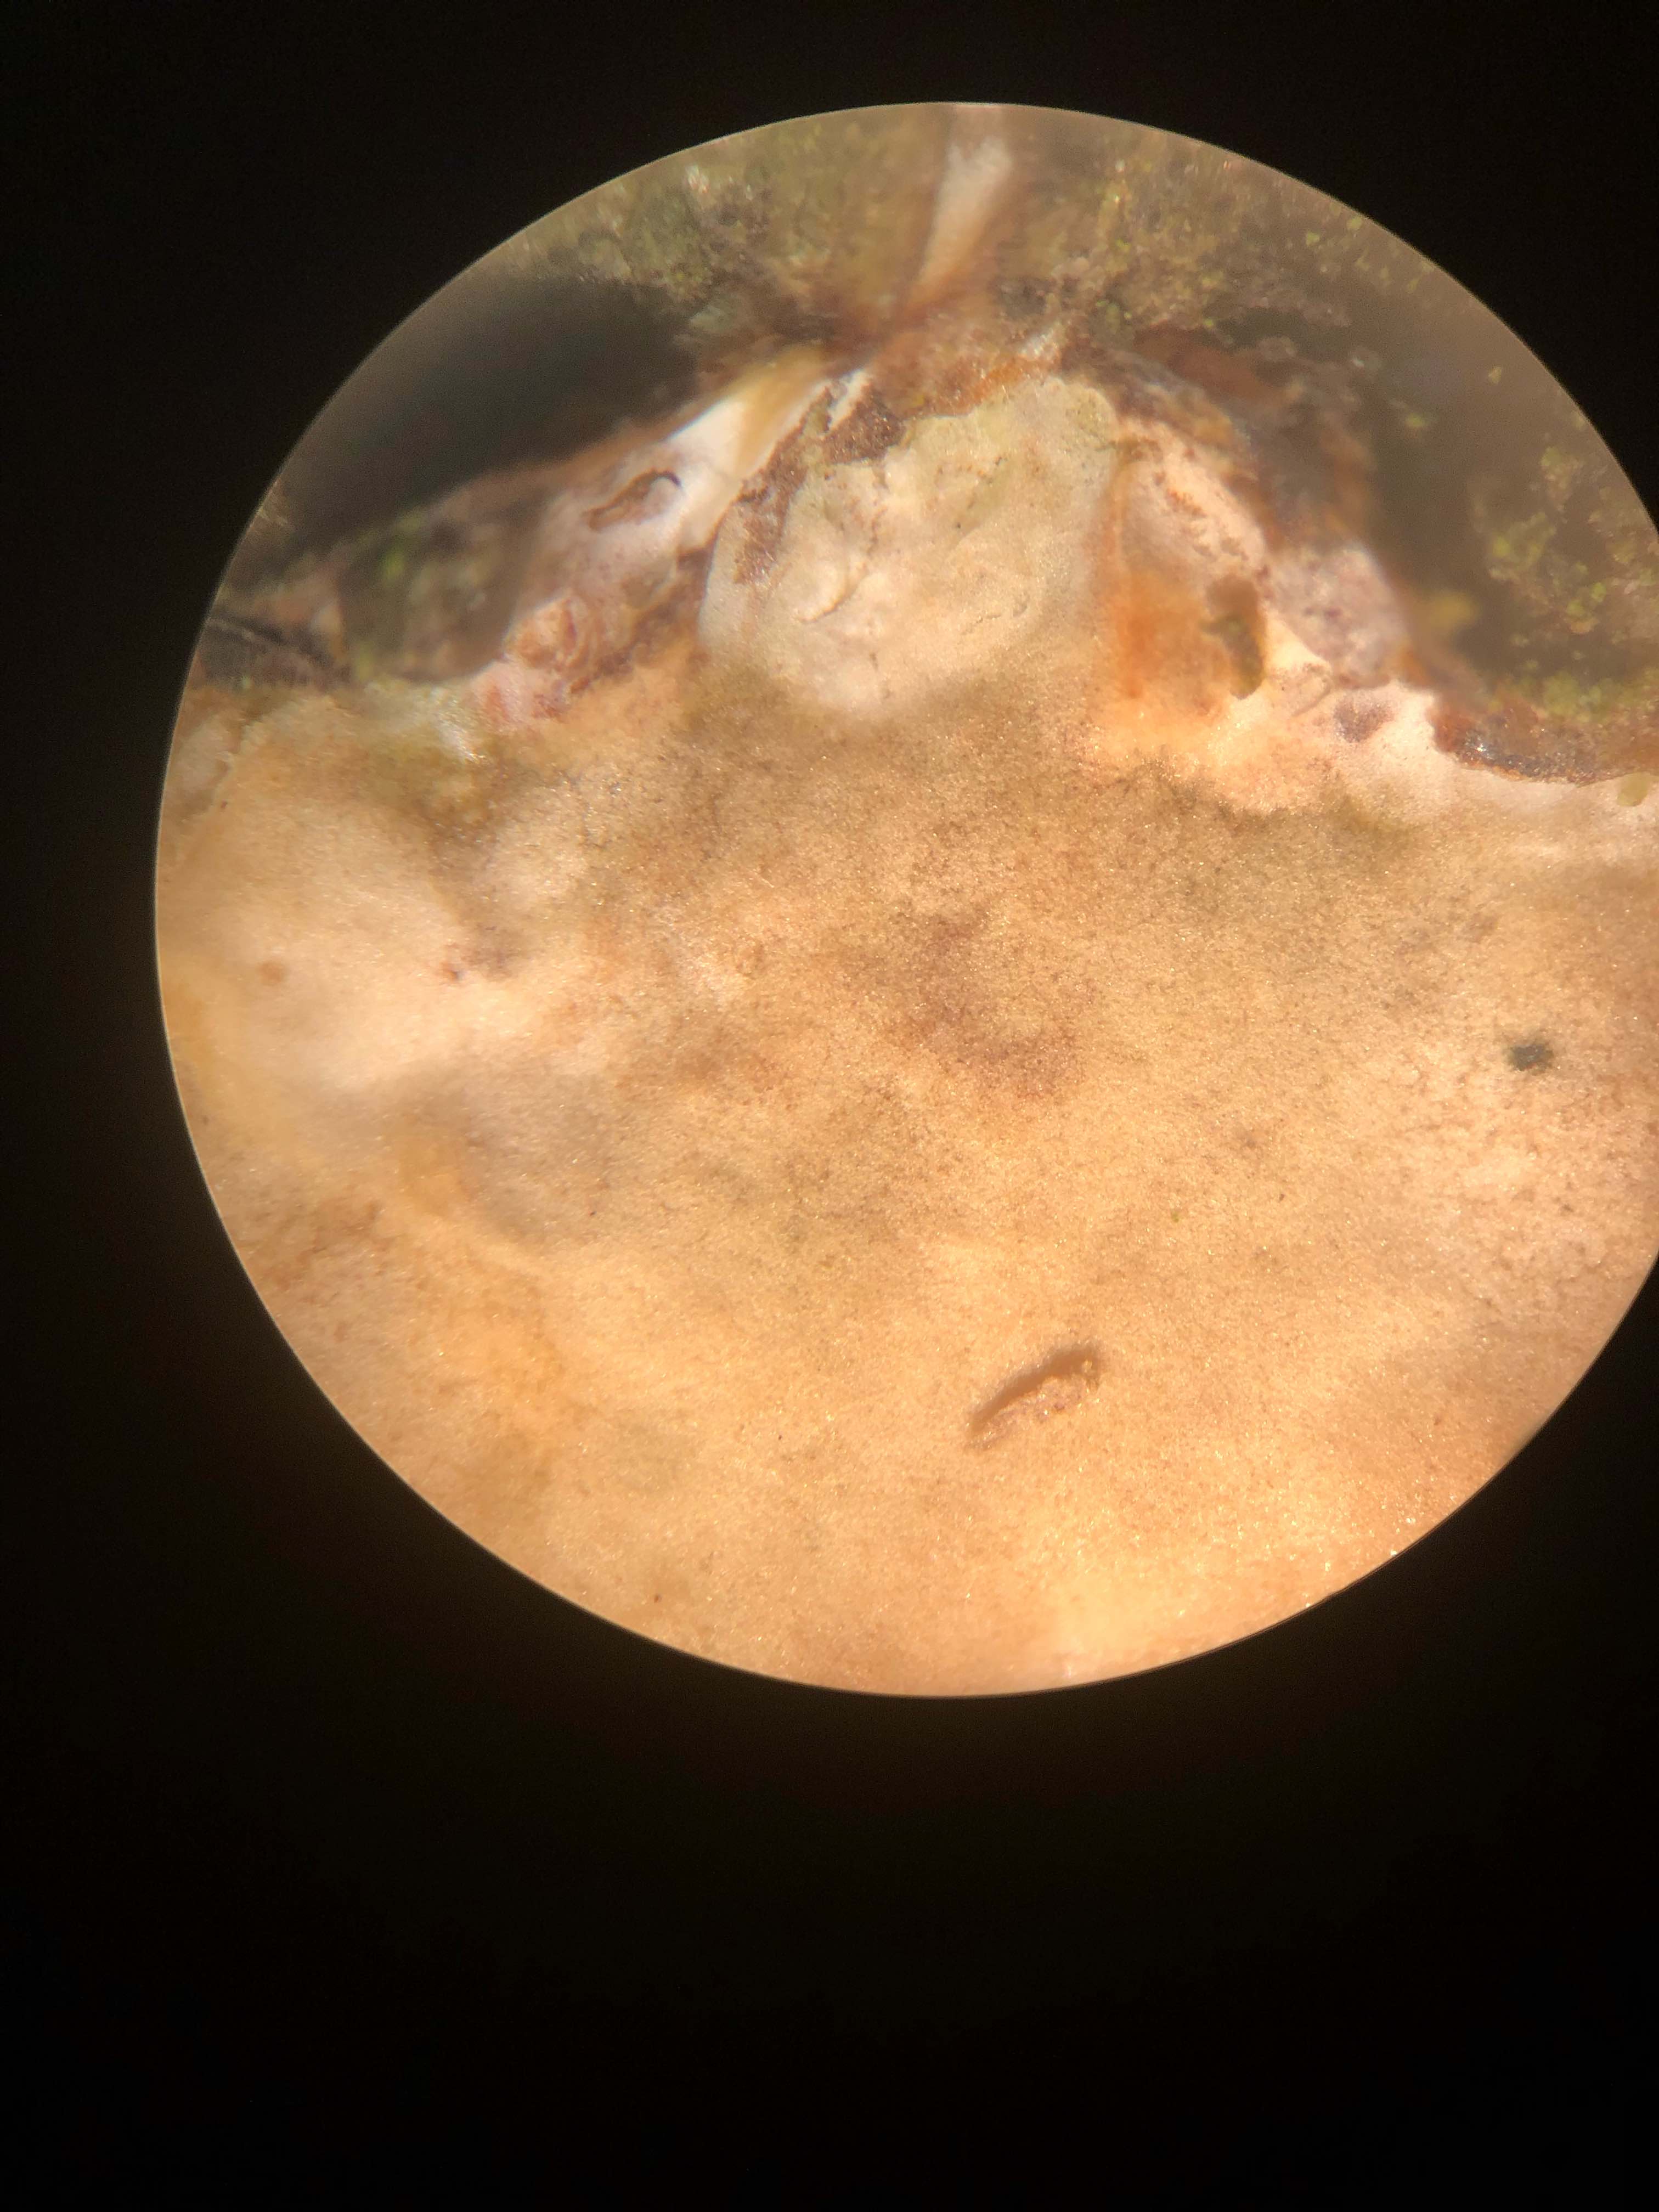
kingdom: Fungi
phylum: Basidiomycota
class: Agaricomycetes
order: Corticiales
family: Vuilleminiaceae
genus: Vuilleminia
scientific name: Vuilleminia comedens
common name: almindelig barksprænger
